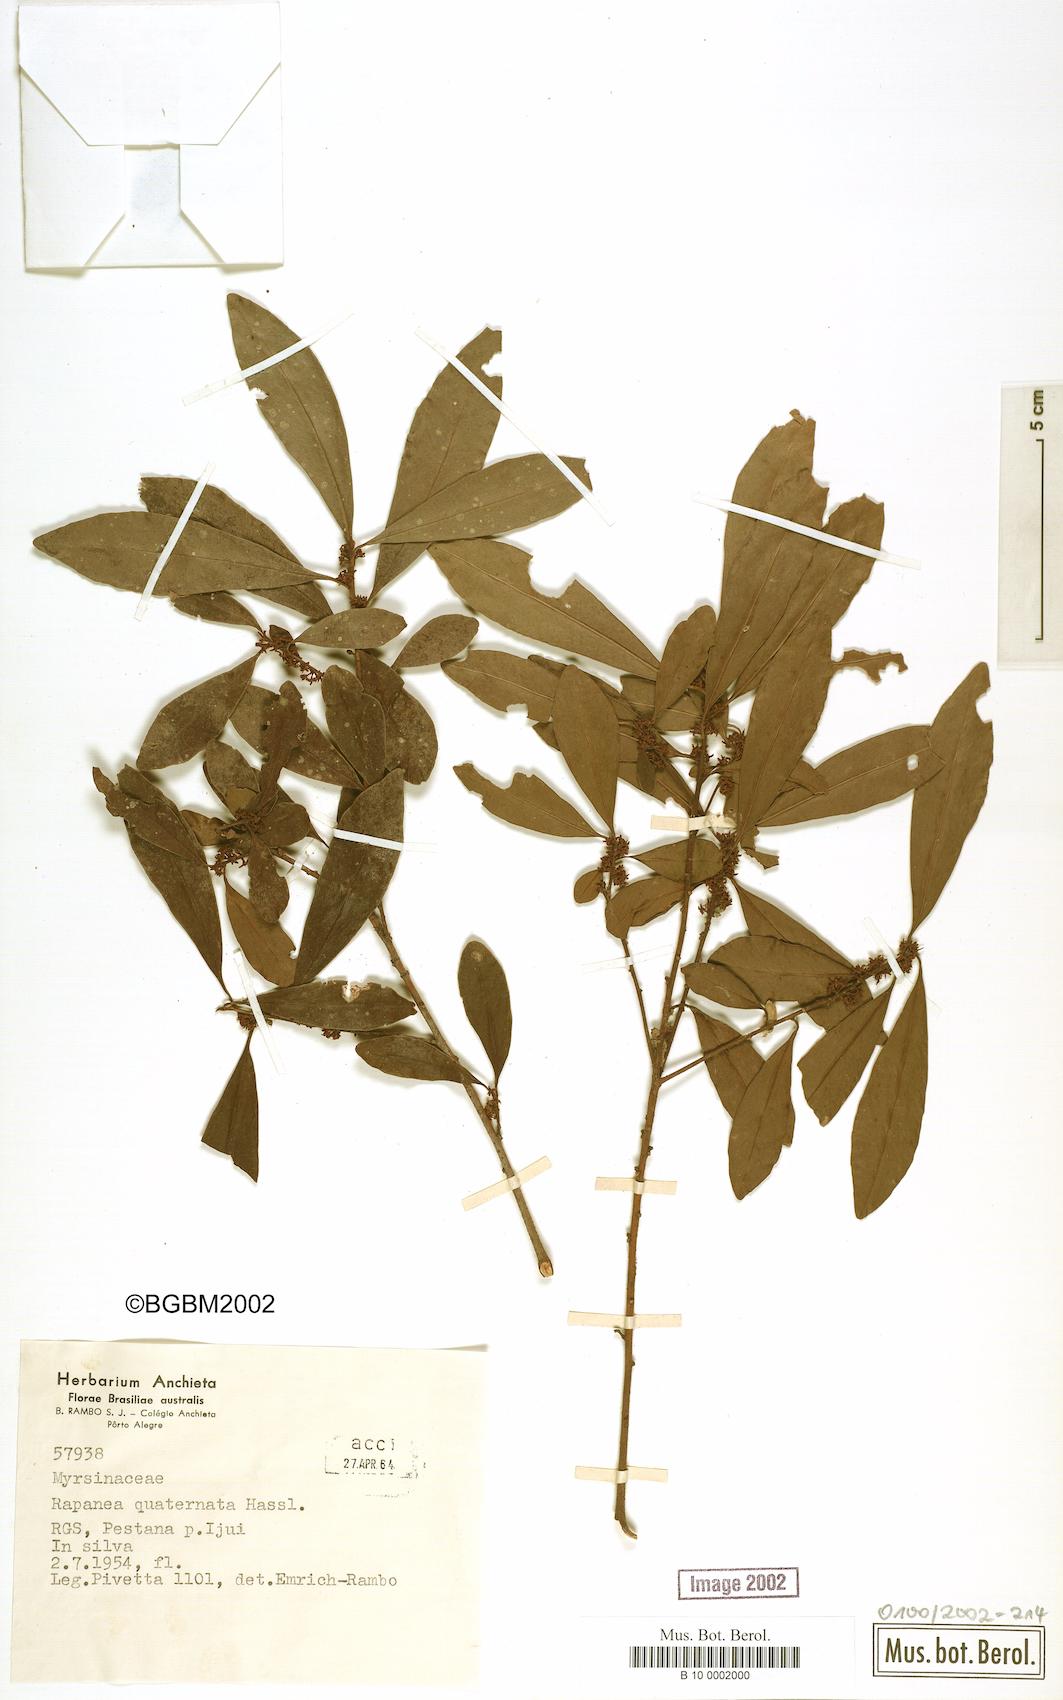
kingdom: Plantae
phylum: Tracheophyta
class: Magnoliopsida
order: Ericales
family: Primulaceae
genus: Myrsine
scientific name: Myrsine loefgrenii
